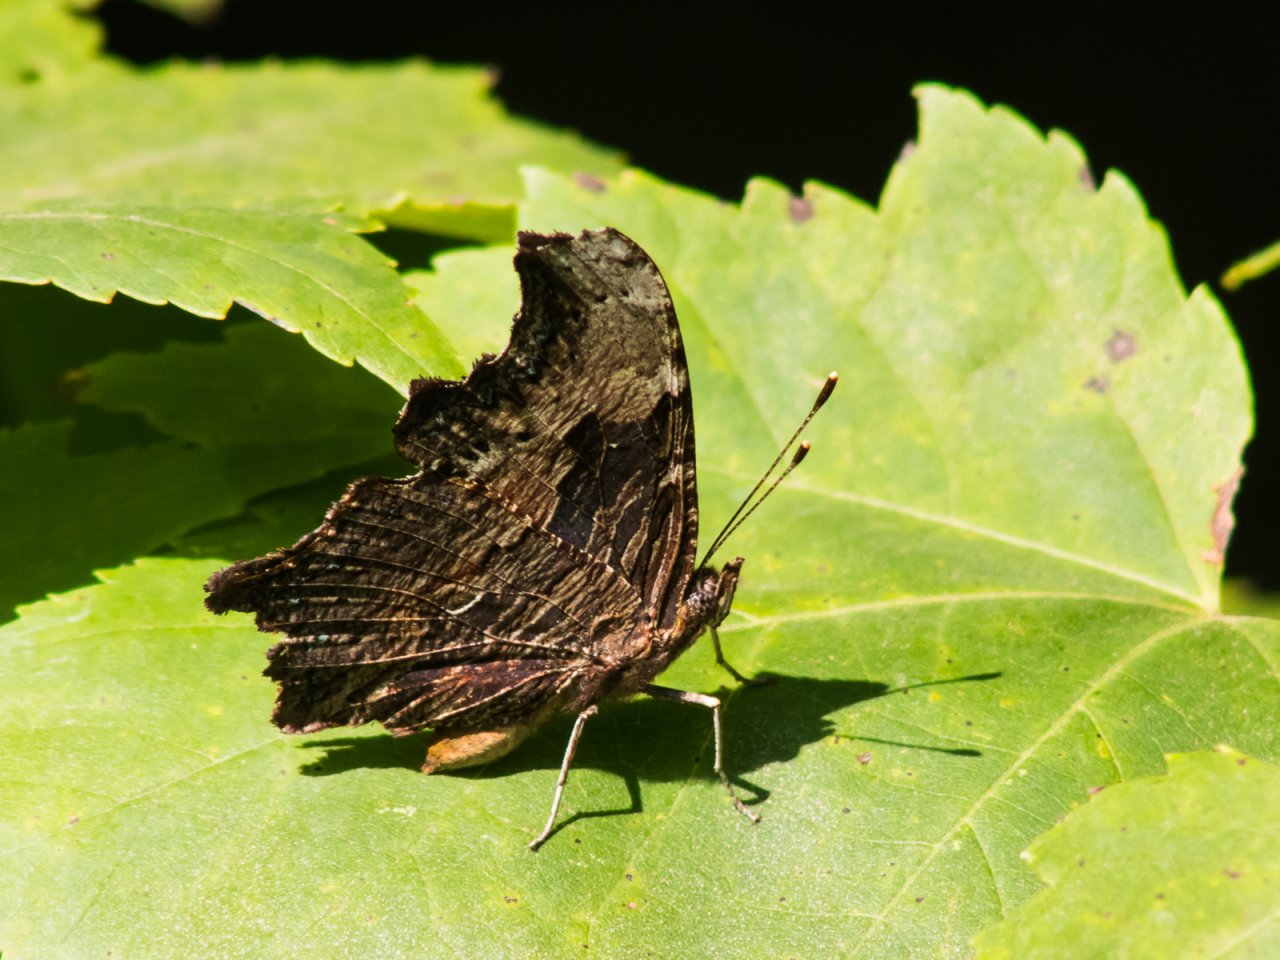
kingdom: Animalia
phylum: Arthropoda
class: Insecta
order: Lepidoptera
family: Nymphalidae
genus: Polygonia
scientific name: Polygonia progne
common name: Gray Comma
